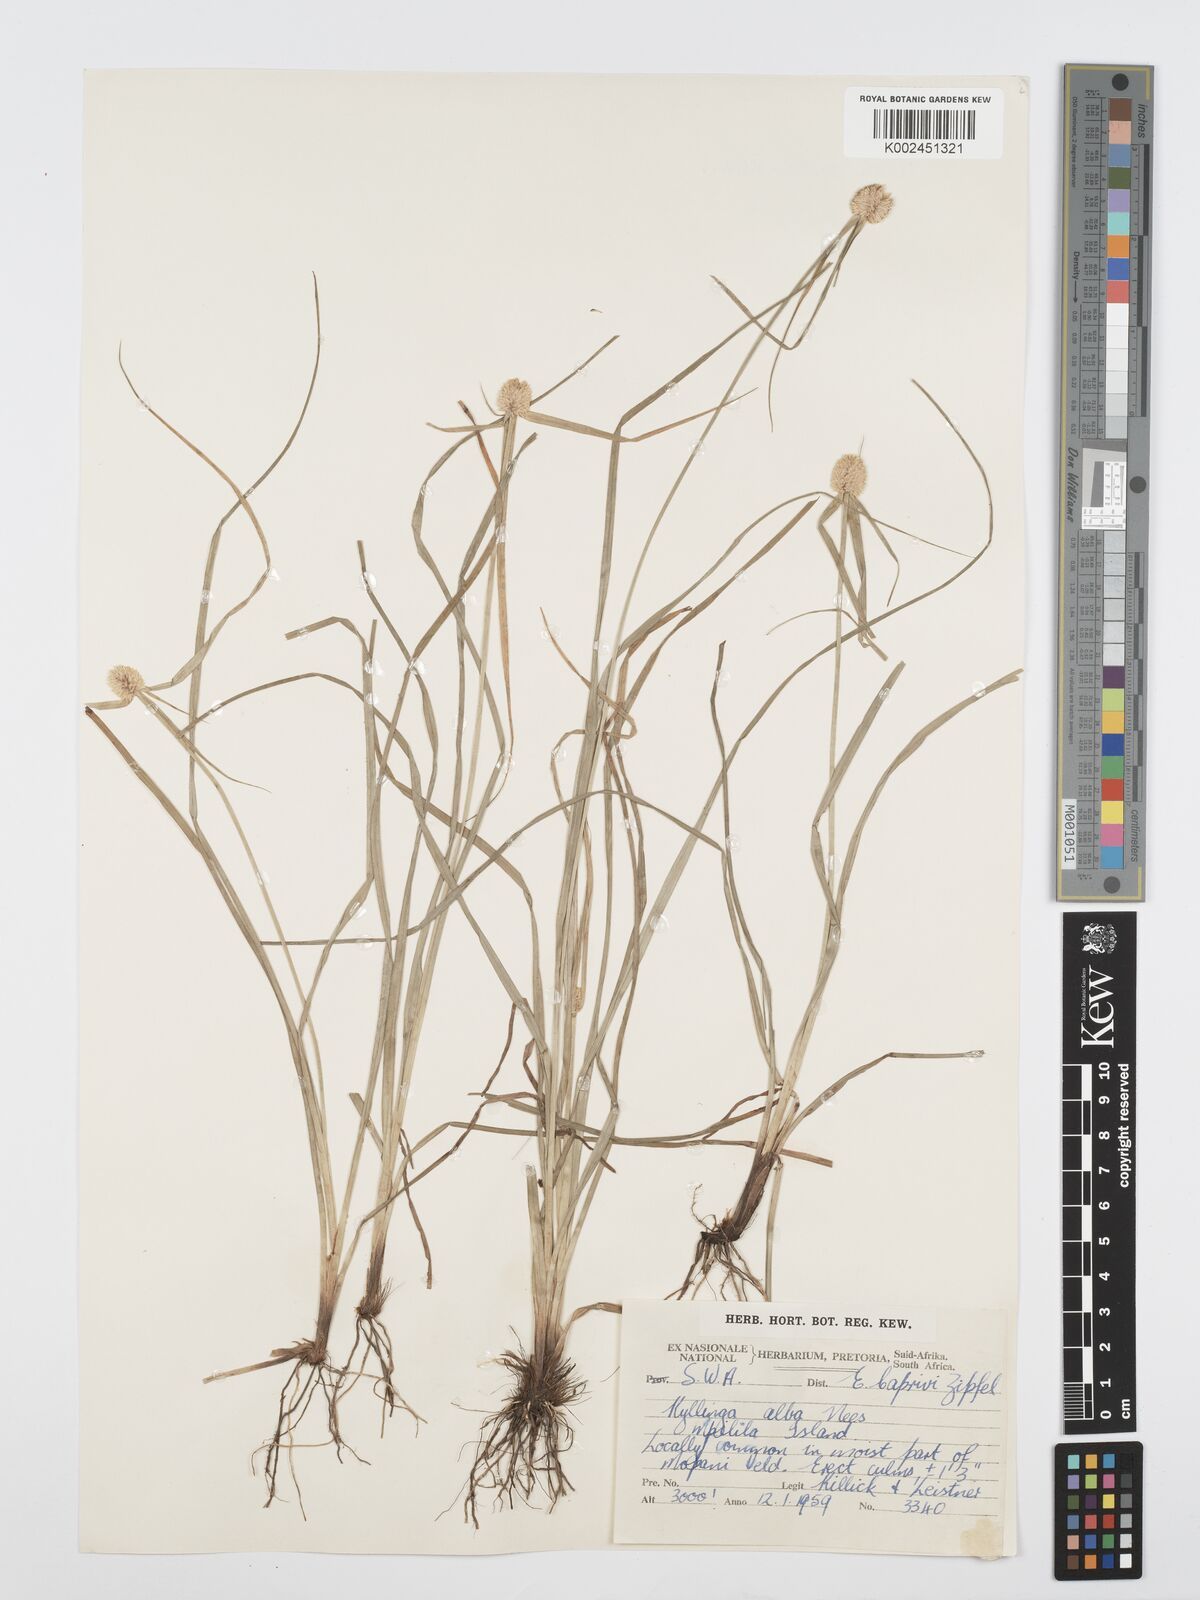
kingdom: Plantae
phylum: Tracheophyta
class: Liliopsida
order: Poales
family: Cyperaceae
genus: Cyperus
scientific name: Cyperus
